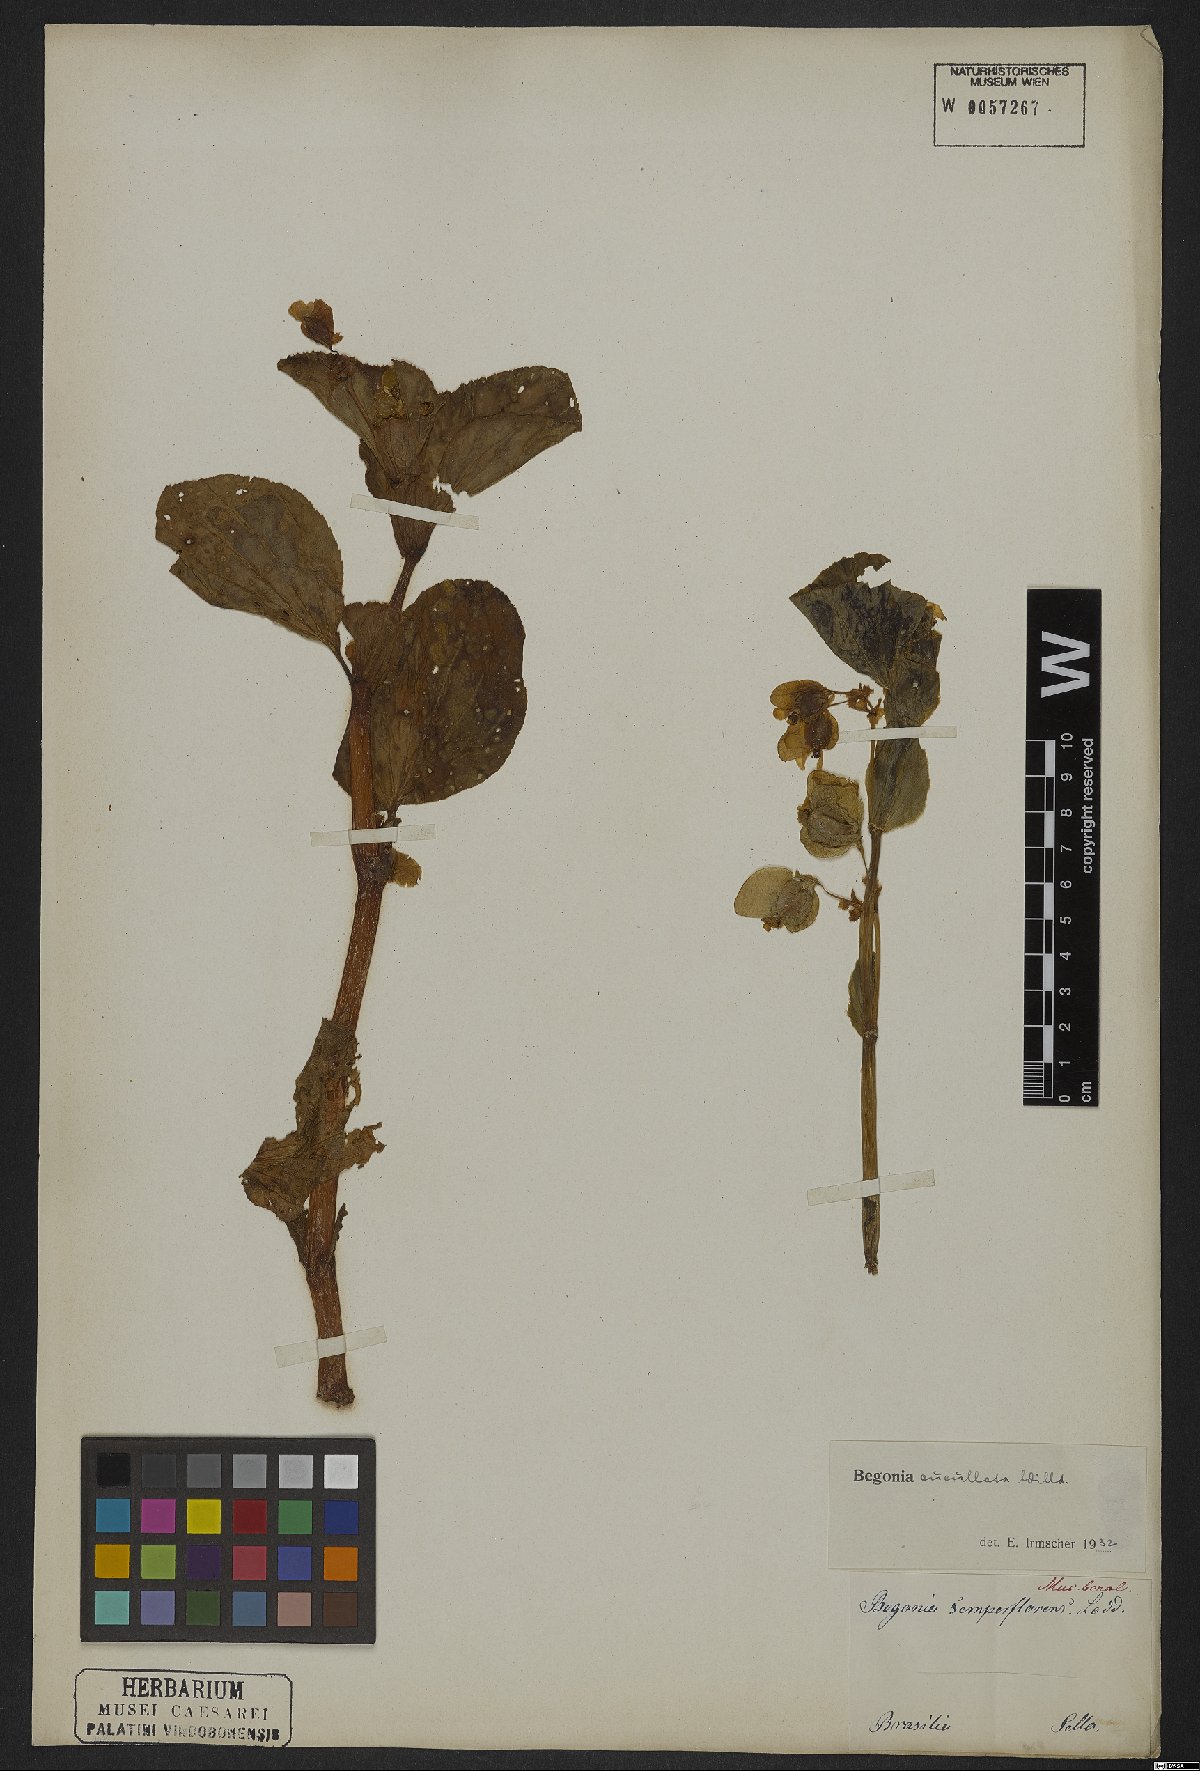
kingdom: Plantae
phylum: Tracheophyta
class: Magnoliopsida
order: Cucurbitales
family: Begoniaceae
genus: Begonia
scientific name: Begonia cucullata
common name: Clubbed begonia
